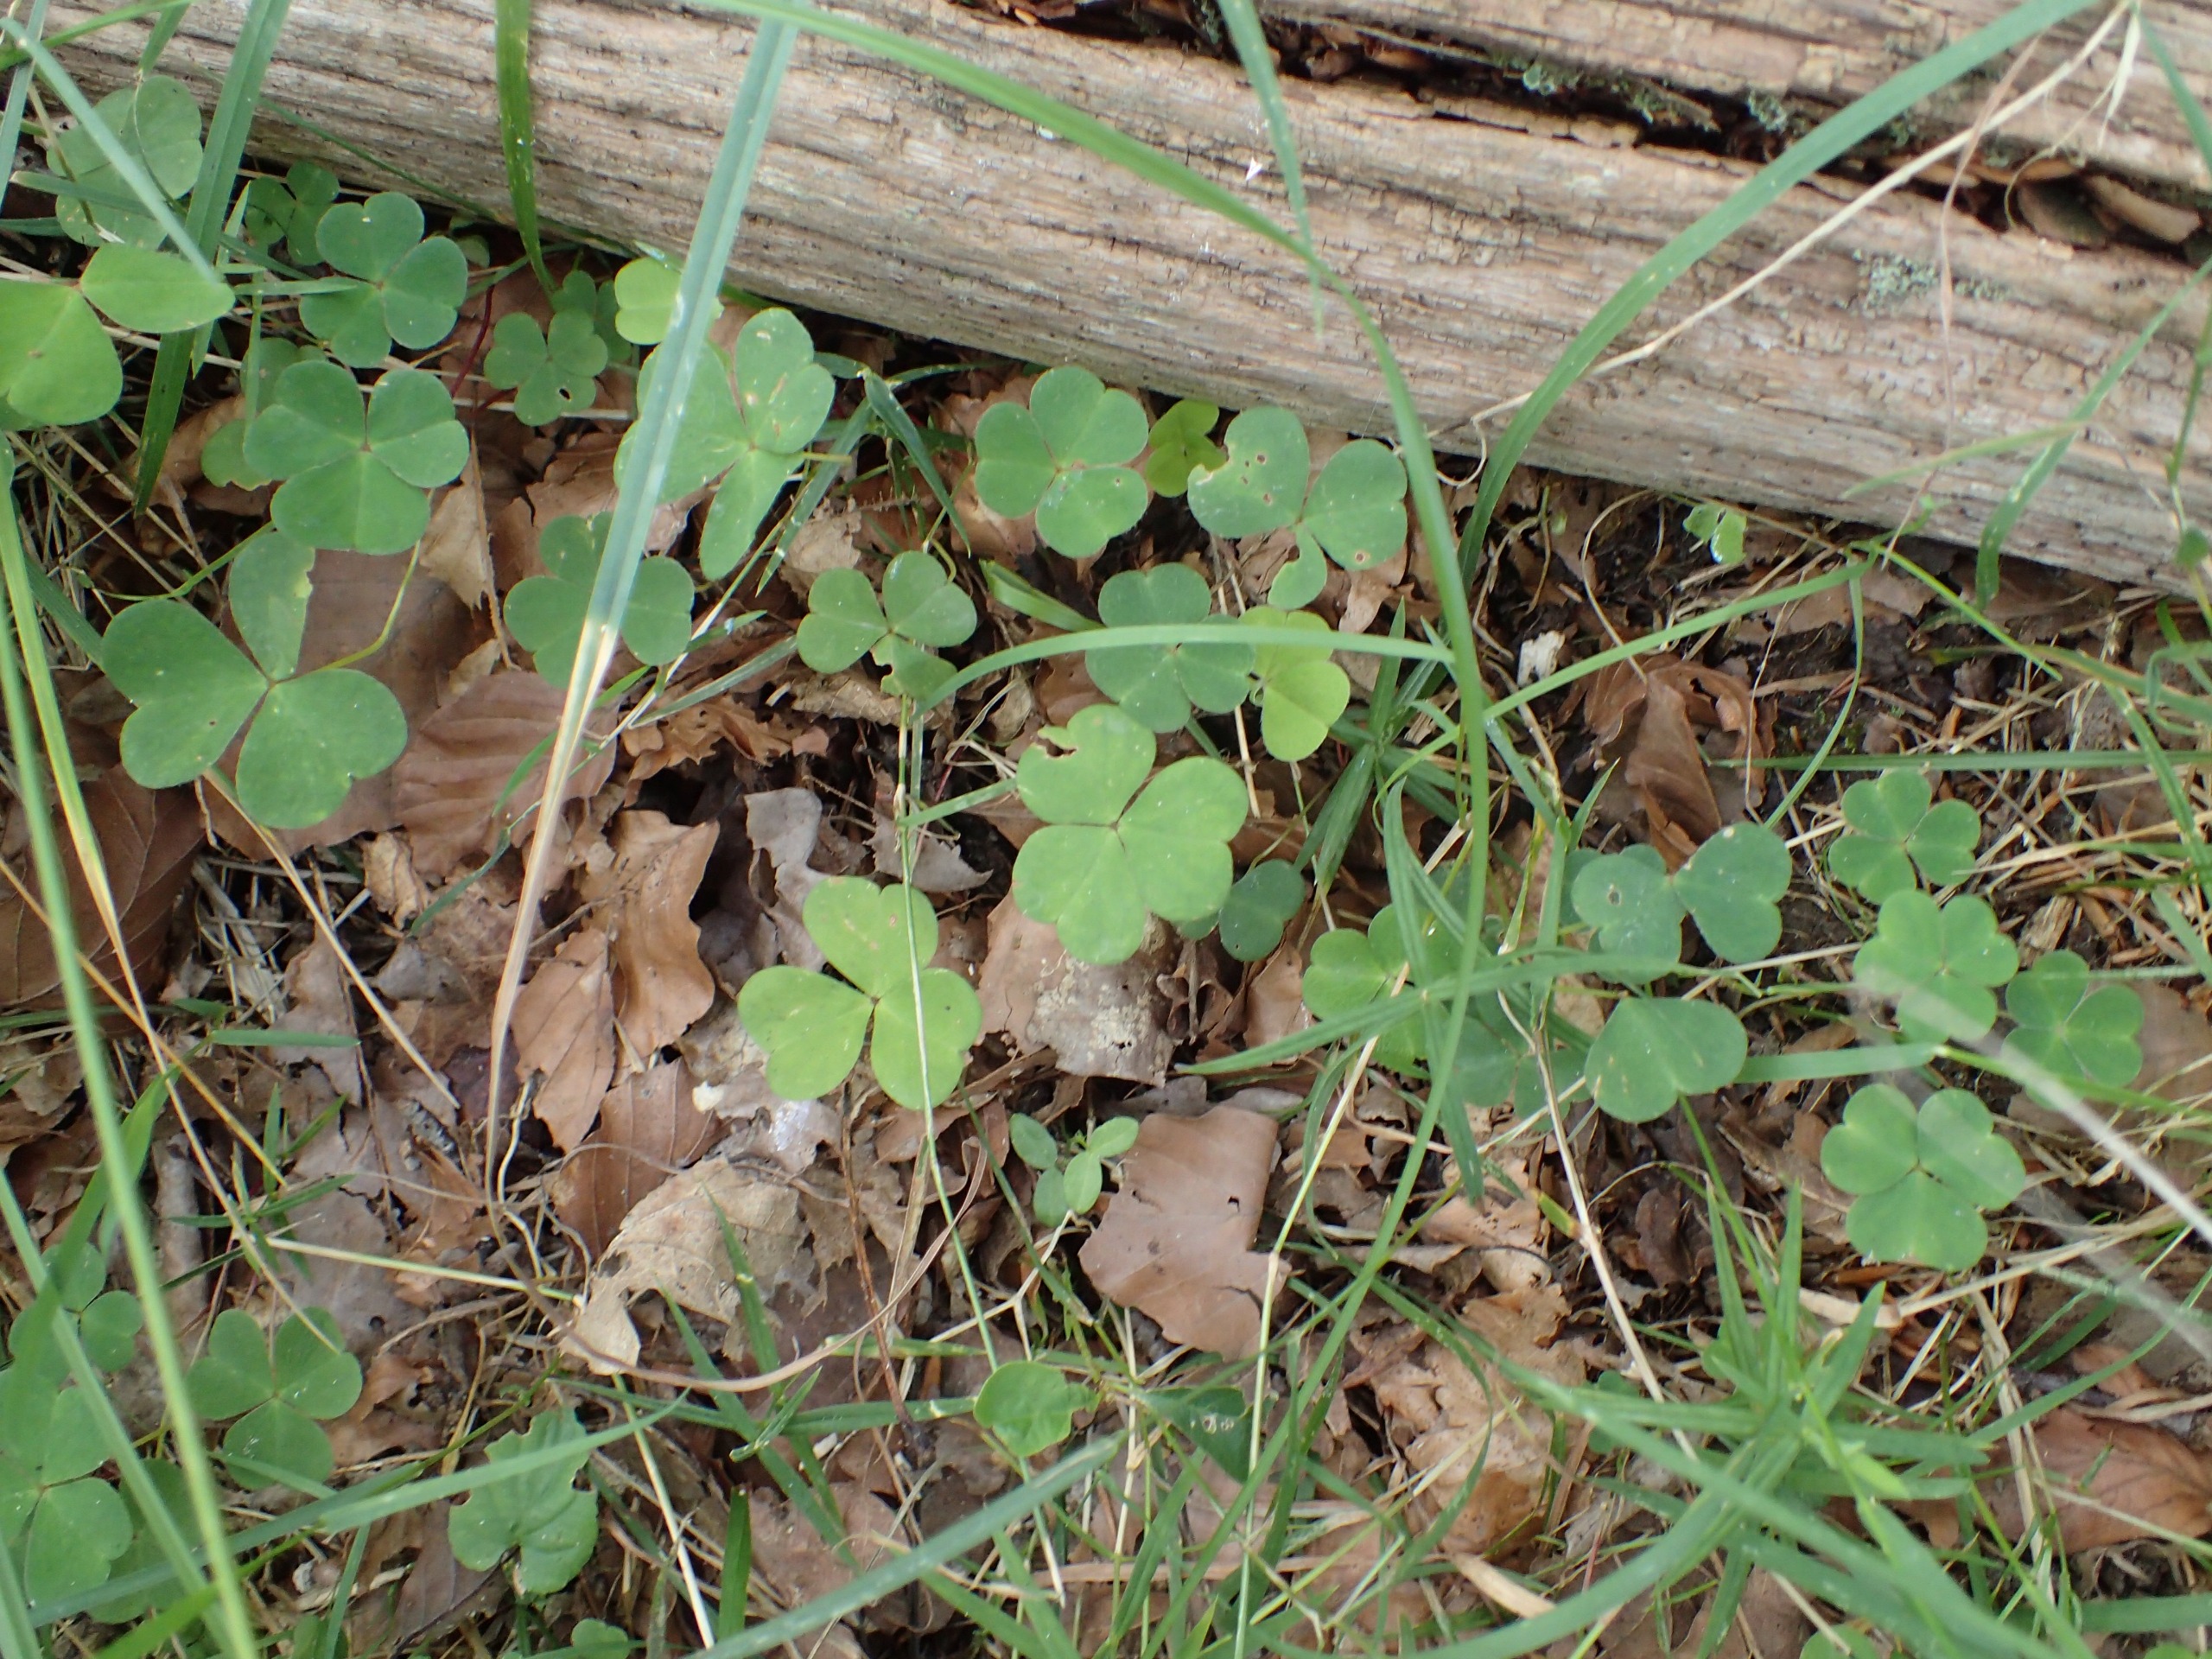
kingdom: Plantae
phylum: Tracheophyta
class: Magnoliopsida
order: Oxalidales
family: Oxalidaceae
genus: Oxalis
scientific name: Oxalis acetosella
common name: Skovsyre
